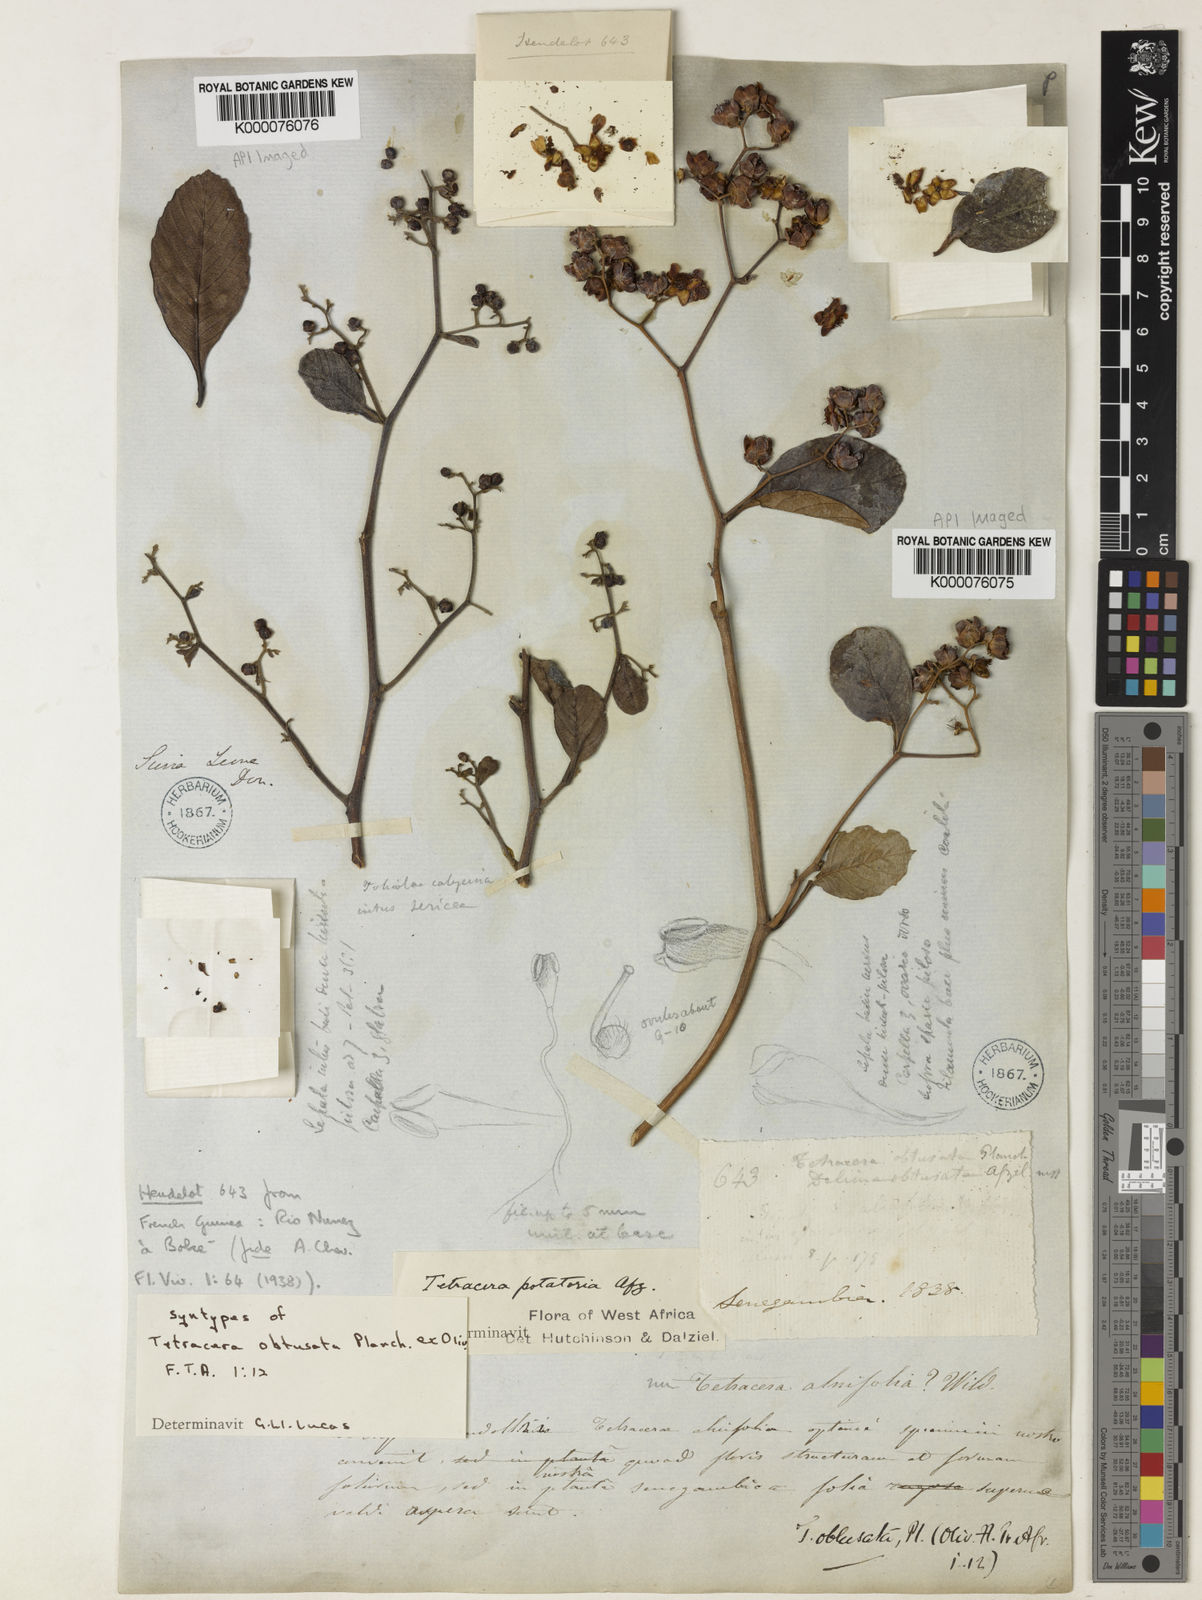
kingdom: Plantae
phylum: Tracheophyta
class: Magnoliopsida
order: Dilleniales
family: Dilleniaceae
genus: Tetracera
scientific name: Tetracera potatoria
